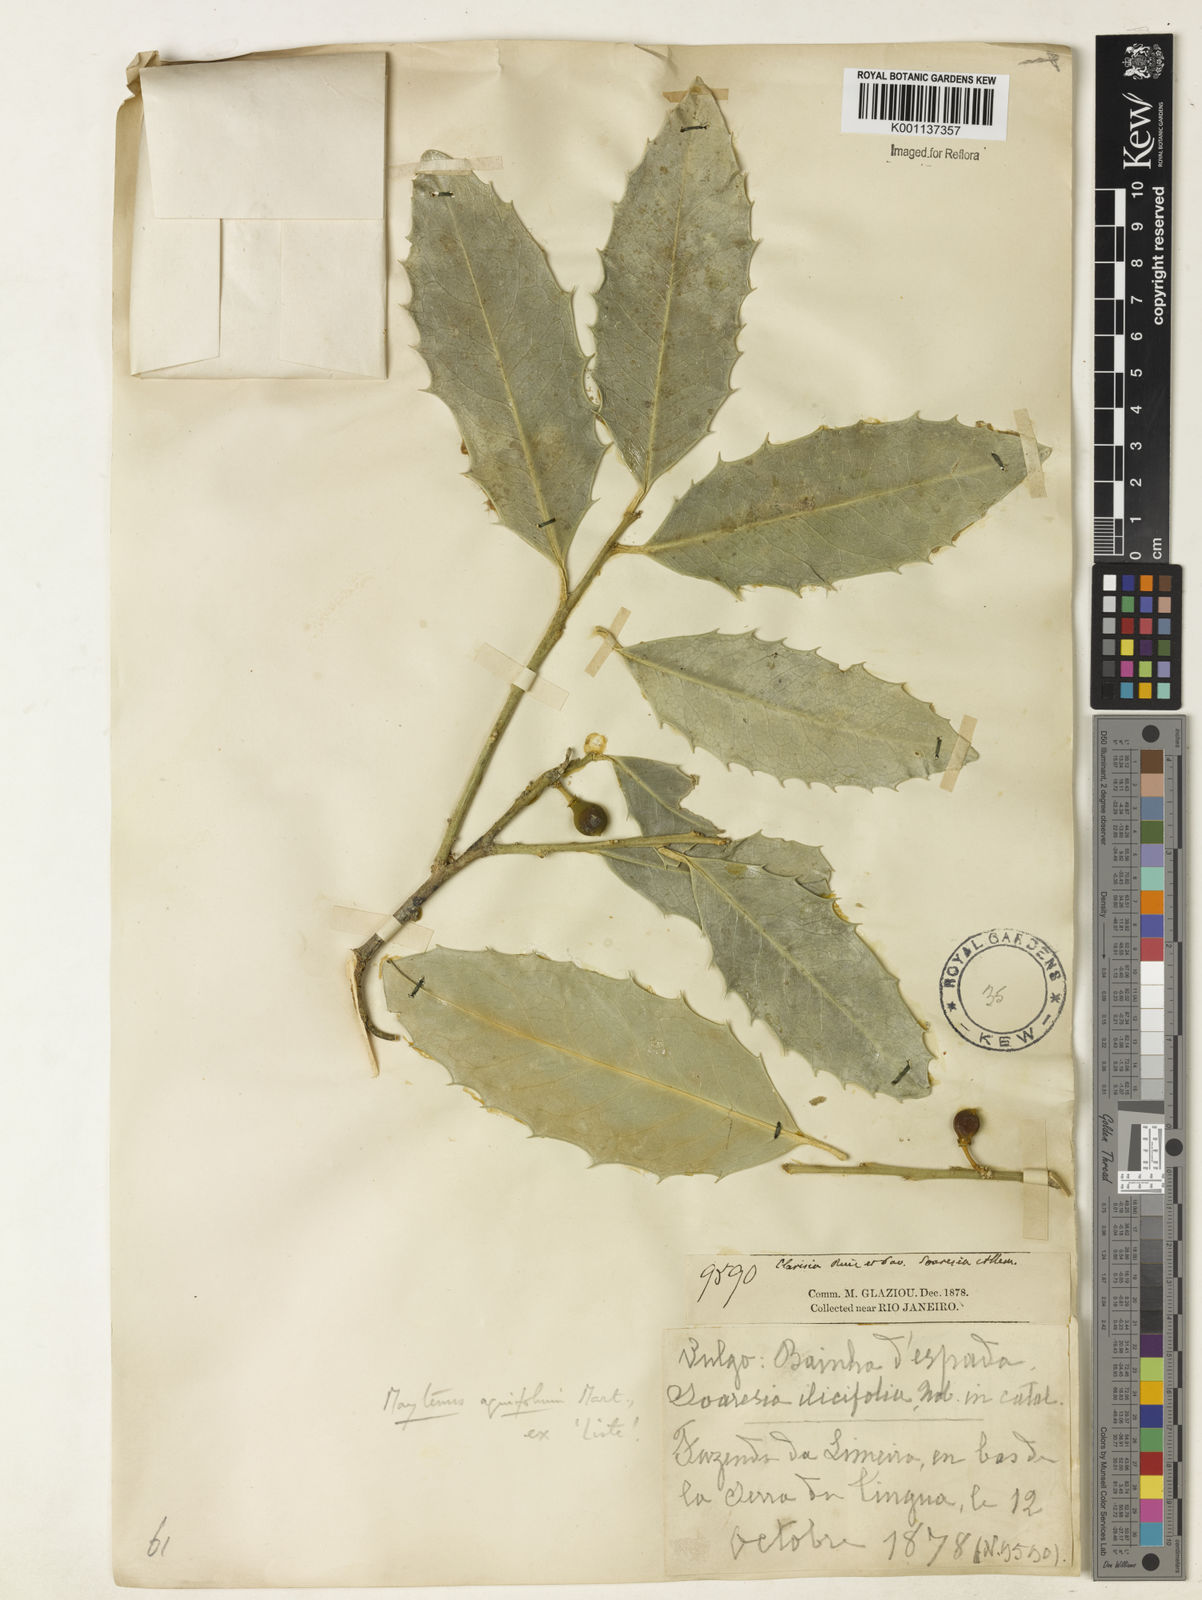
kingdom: Plantae
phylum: Tracheophyta
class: Magnoliopsida
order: Celastrales
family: Celastraceae
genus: Monteverdia
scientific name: Monteverdia aquifolium
